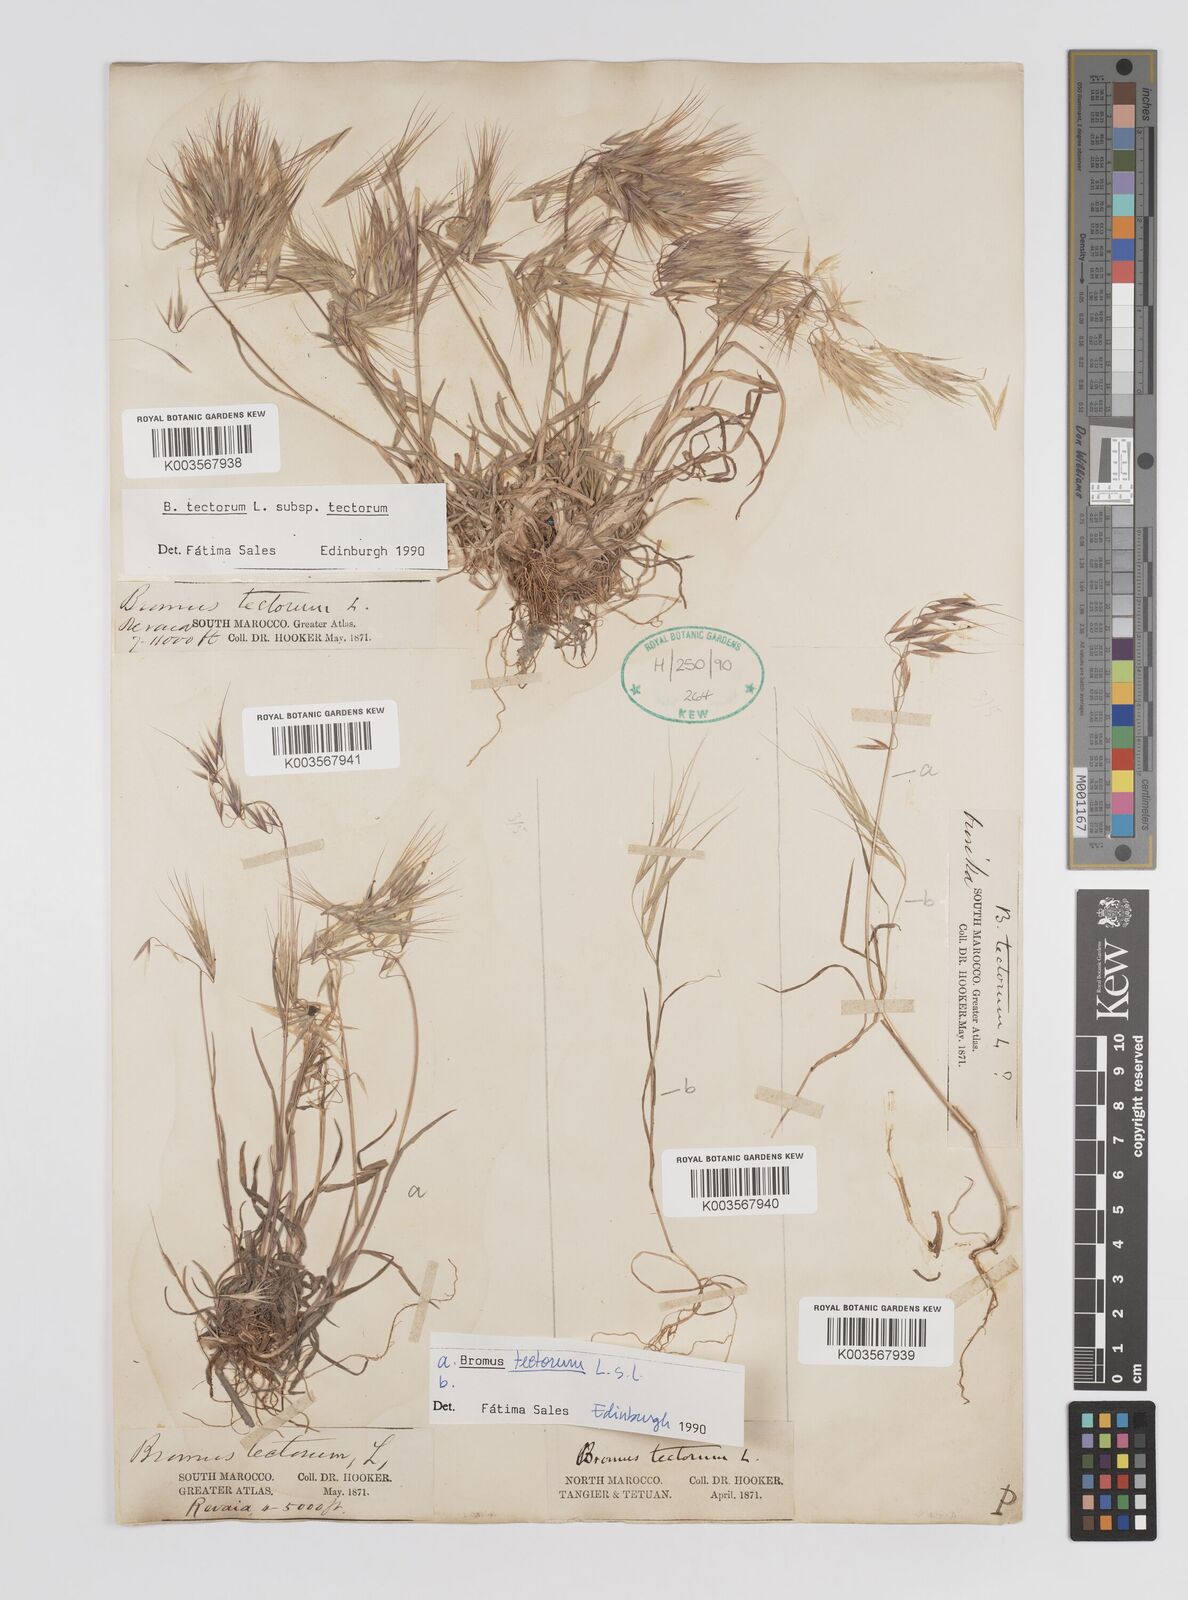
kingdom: Plantae
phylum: Tracheophyta
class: Liliopsida
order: Poales
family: Poaceae
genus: Bromus
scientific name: Bromus tectorum
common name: Cheatgrass
